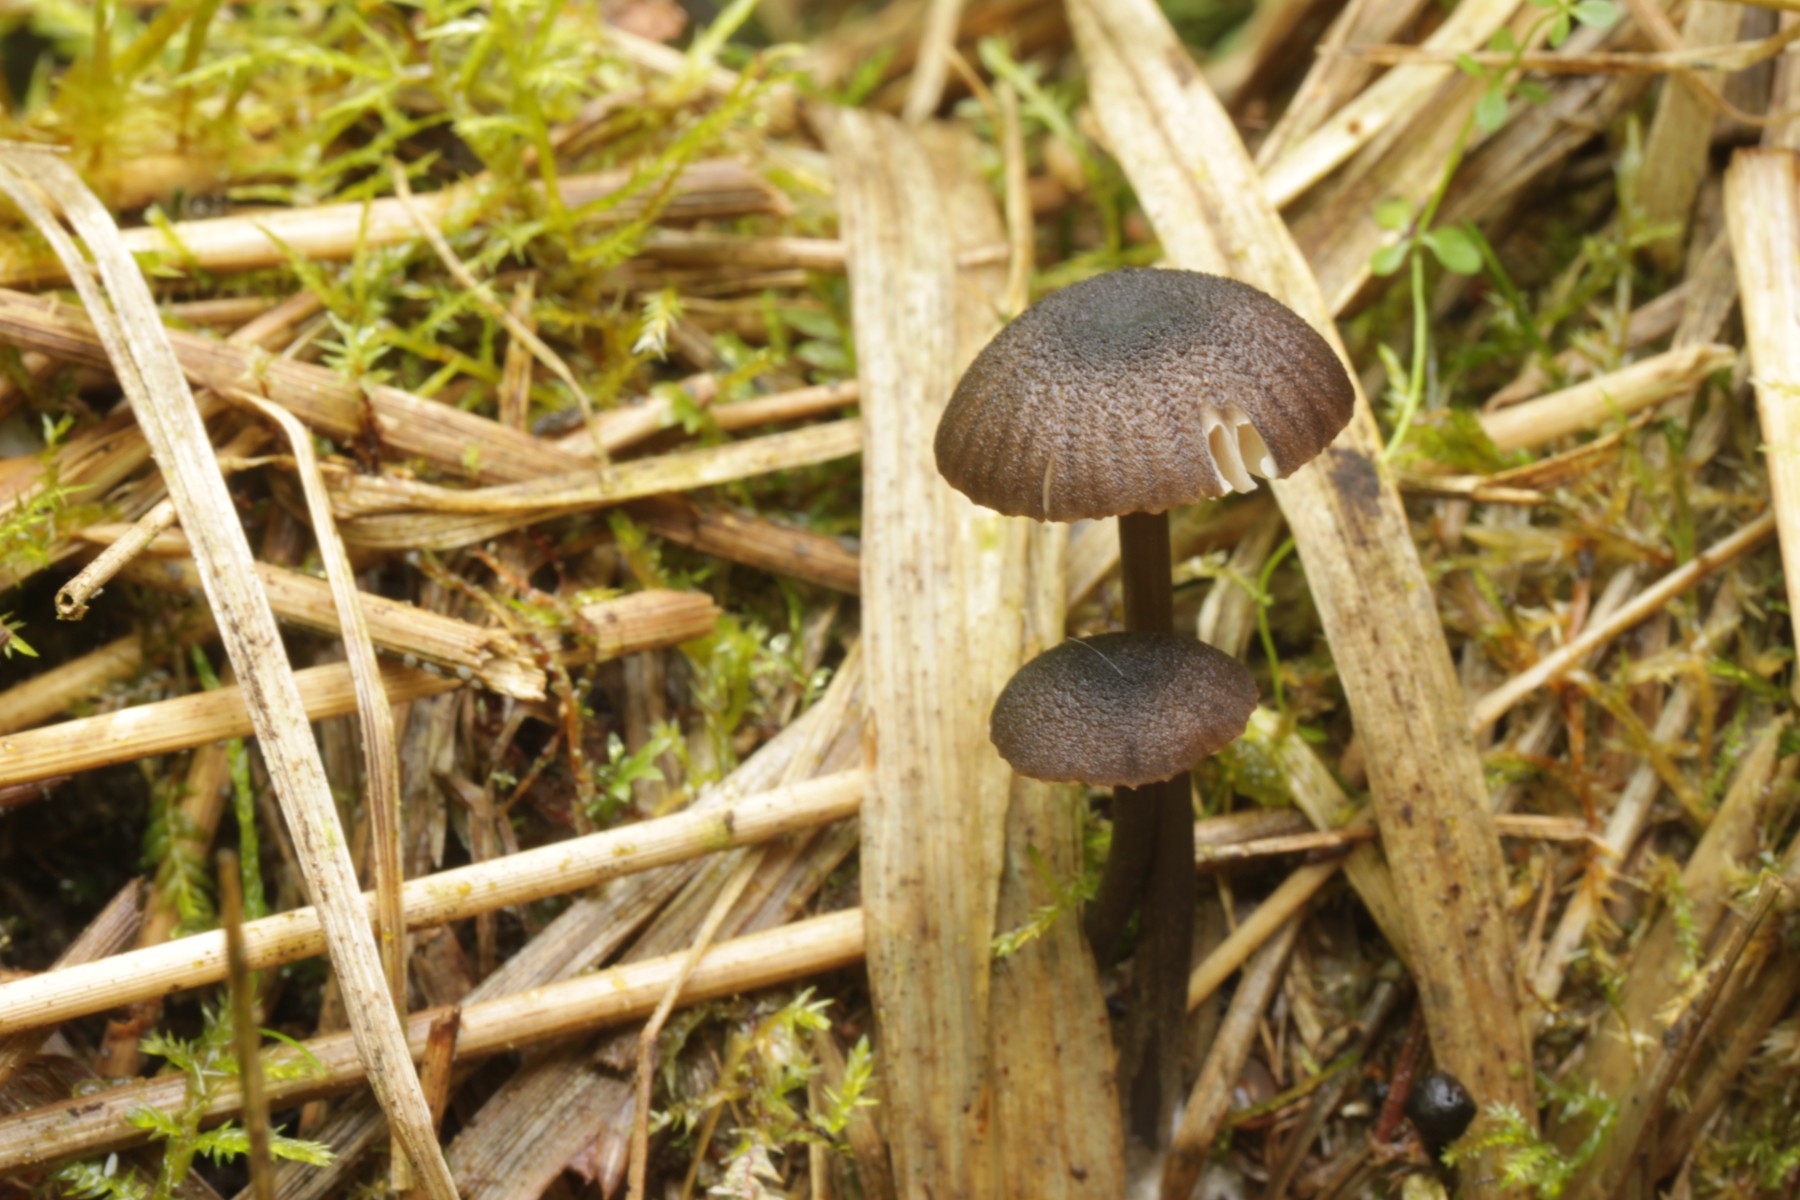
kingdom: Fungi
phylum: Basidiomycota
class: Agaricomycetes
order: Agaricales
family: Entolomataceae
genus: Entoloma
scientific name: Entoloma brunneicoeruleum
